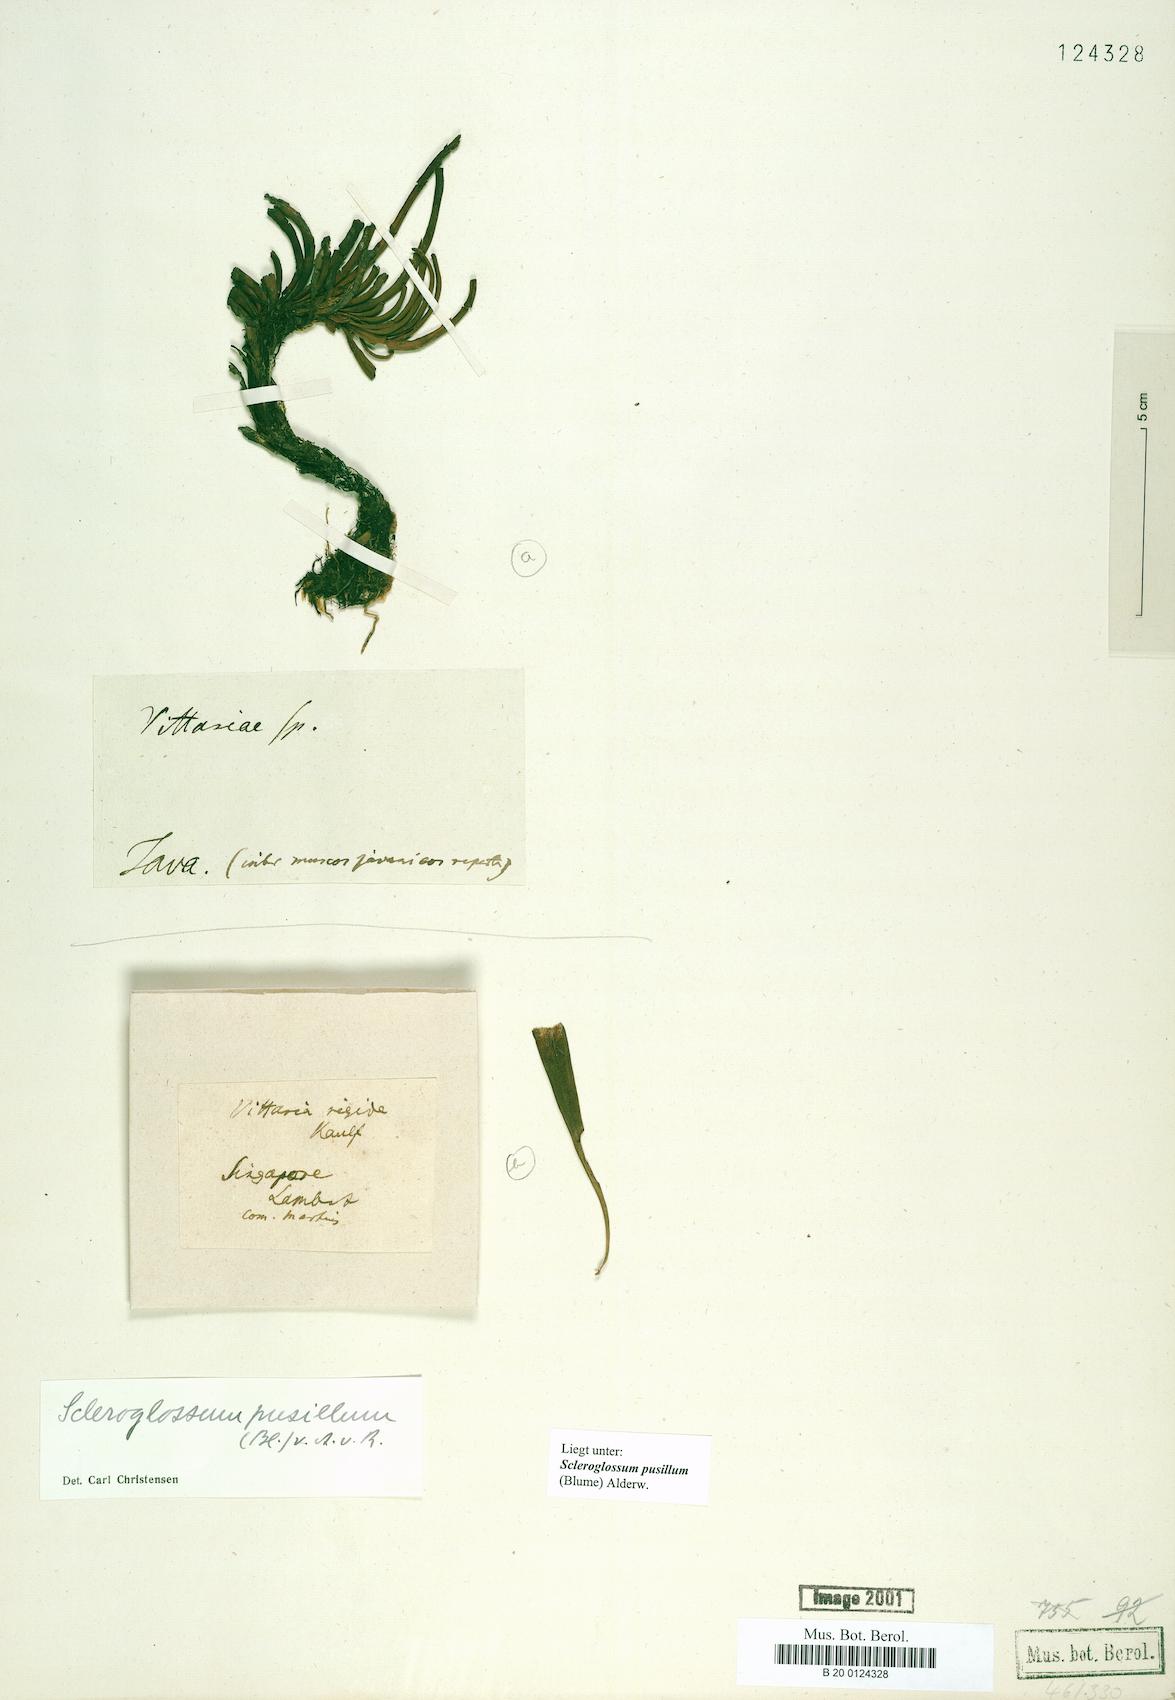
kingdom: Plantae
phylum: Tracheophyta
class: Polypodiopsida
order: Polypodiales
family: Polypodiaceae
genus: Scleroglossum
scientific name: Scleroglossum pusillum
